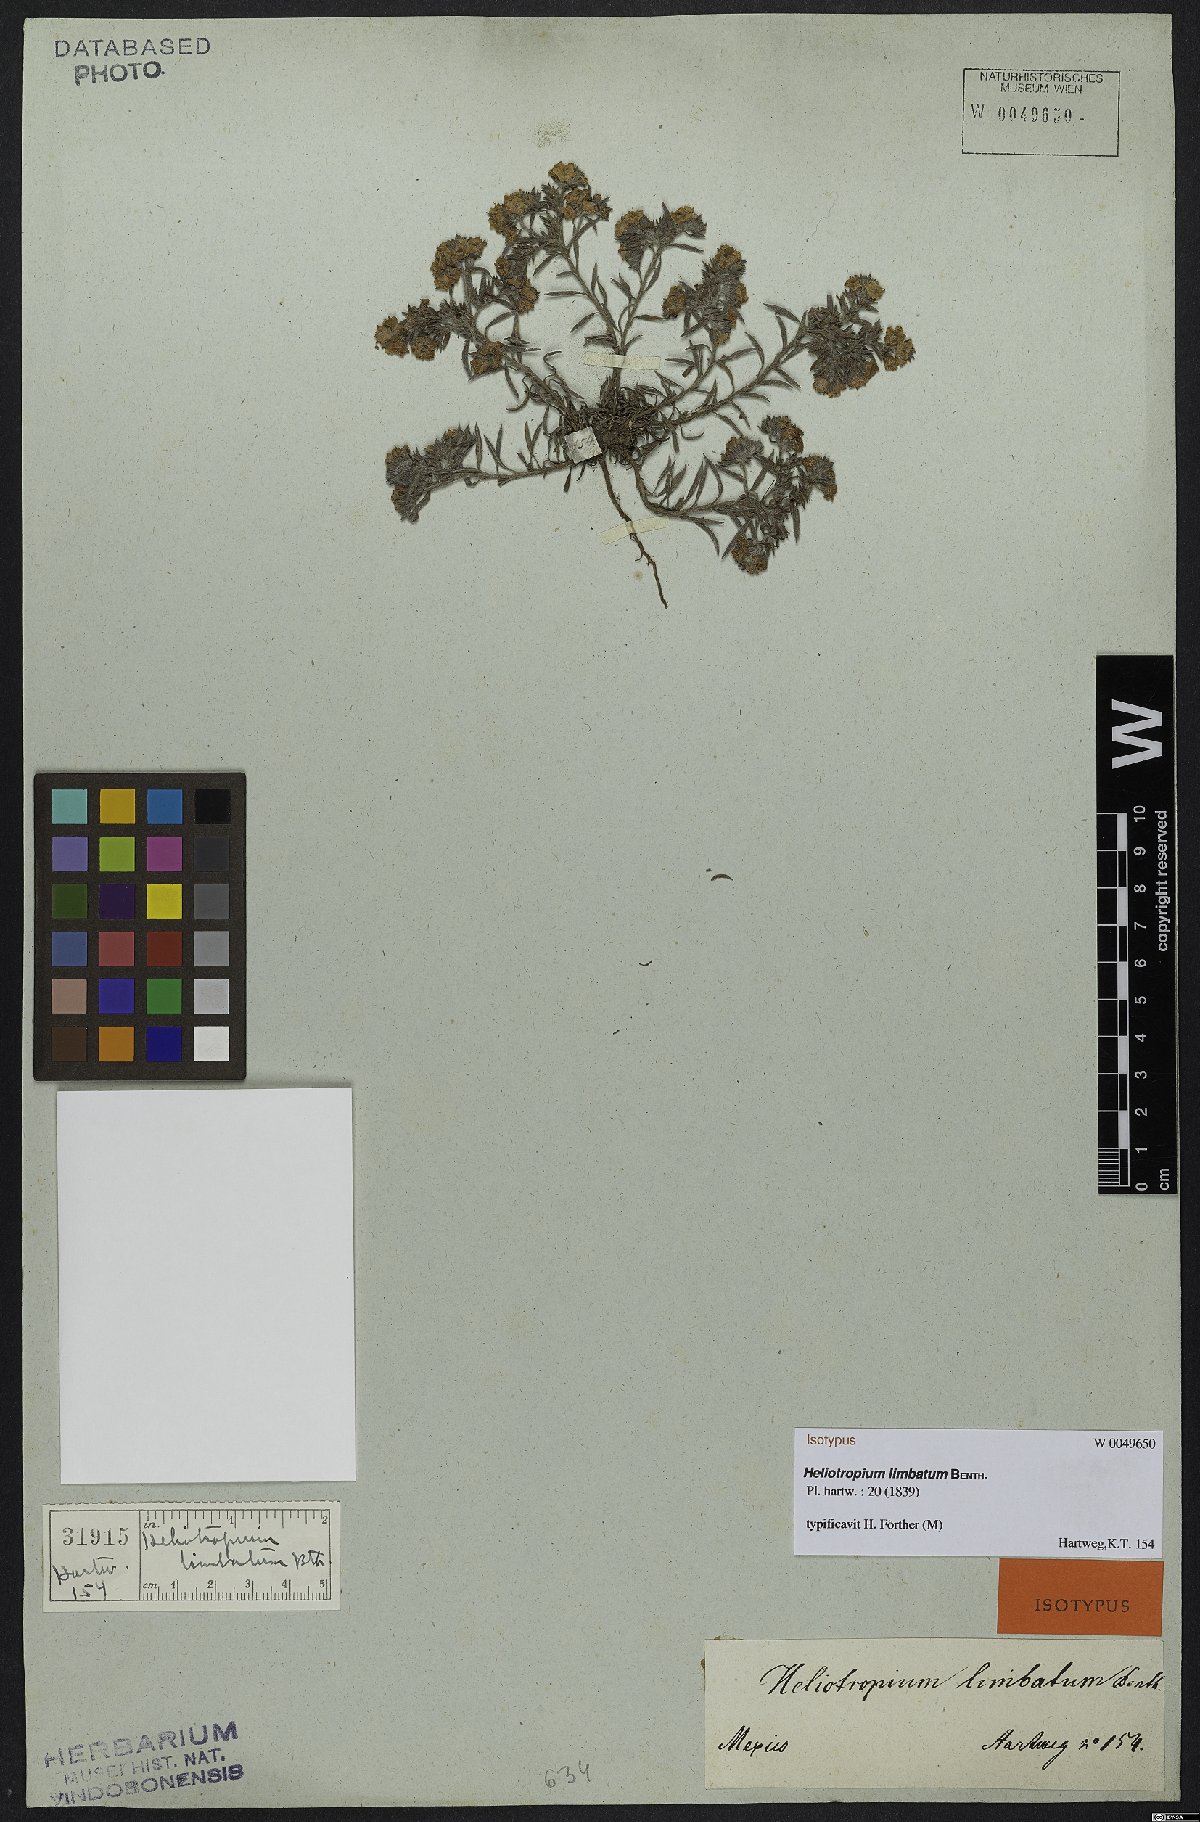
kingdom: Plantae
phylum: Tracheophyta
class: Magnoliopsida
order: Boraginales
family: Heliotropiaceae
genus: Euploca
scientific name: Euploca limbata
